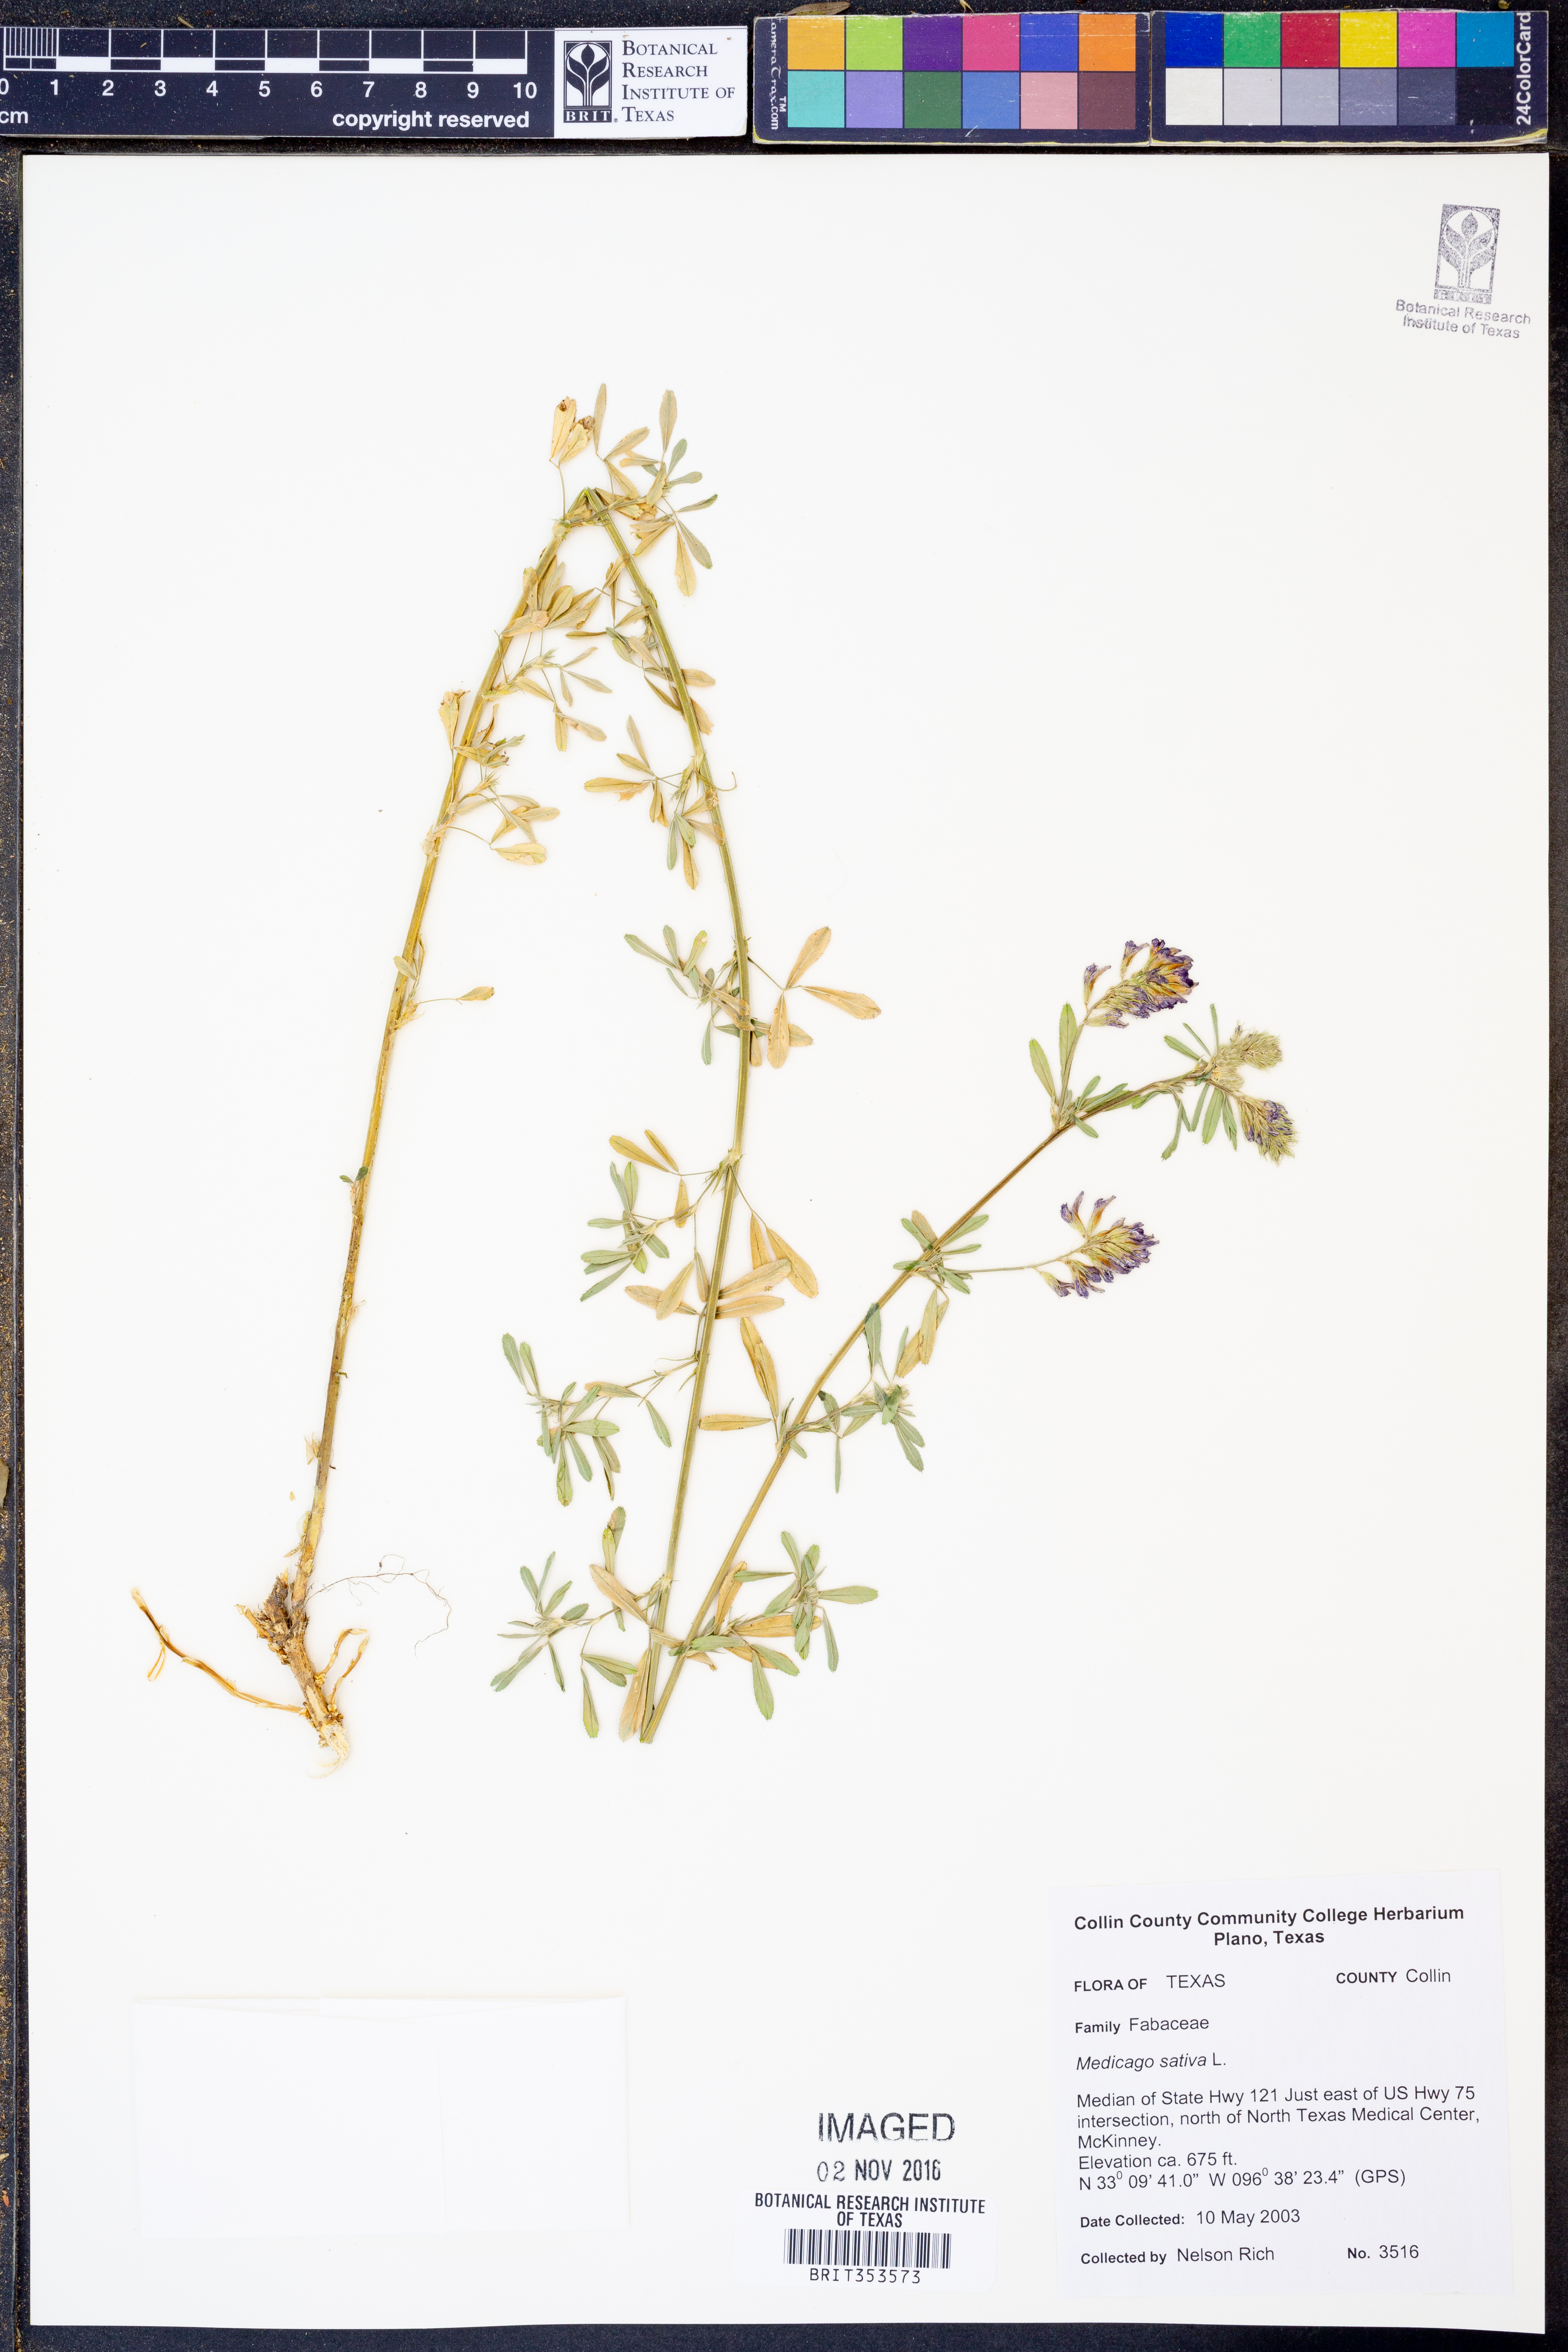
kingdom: Plantae
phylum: Tracheophyta
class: Magnoliopsida
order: Fabales
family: Fabaceae
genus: Medicago
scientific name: Medicago sativa
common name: Alfalfa
